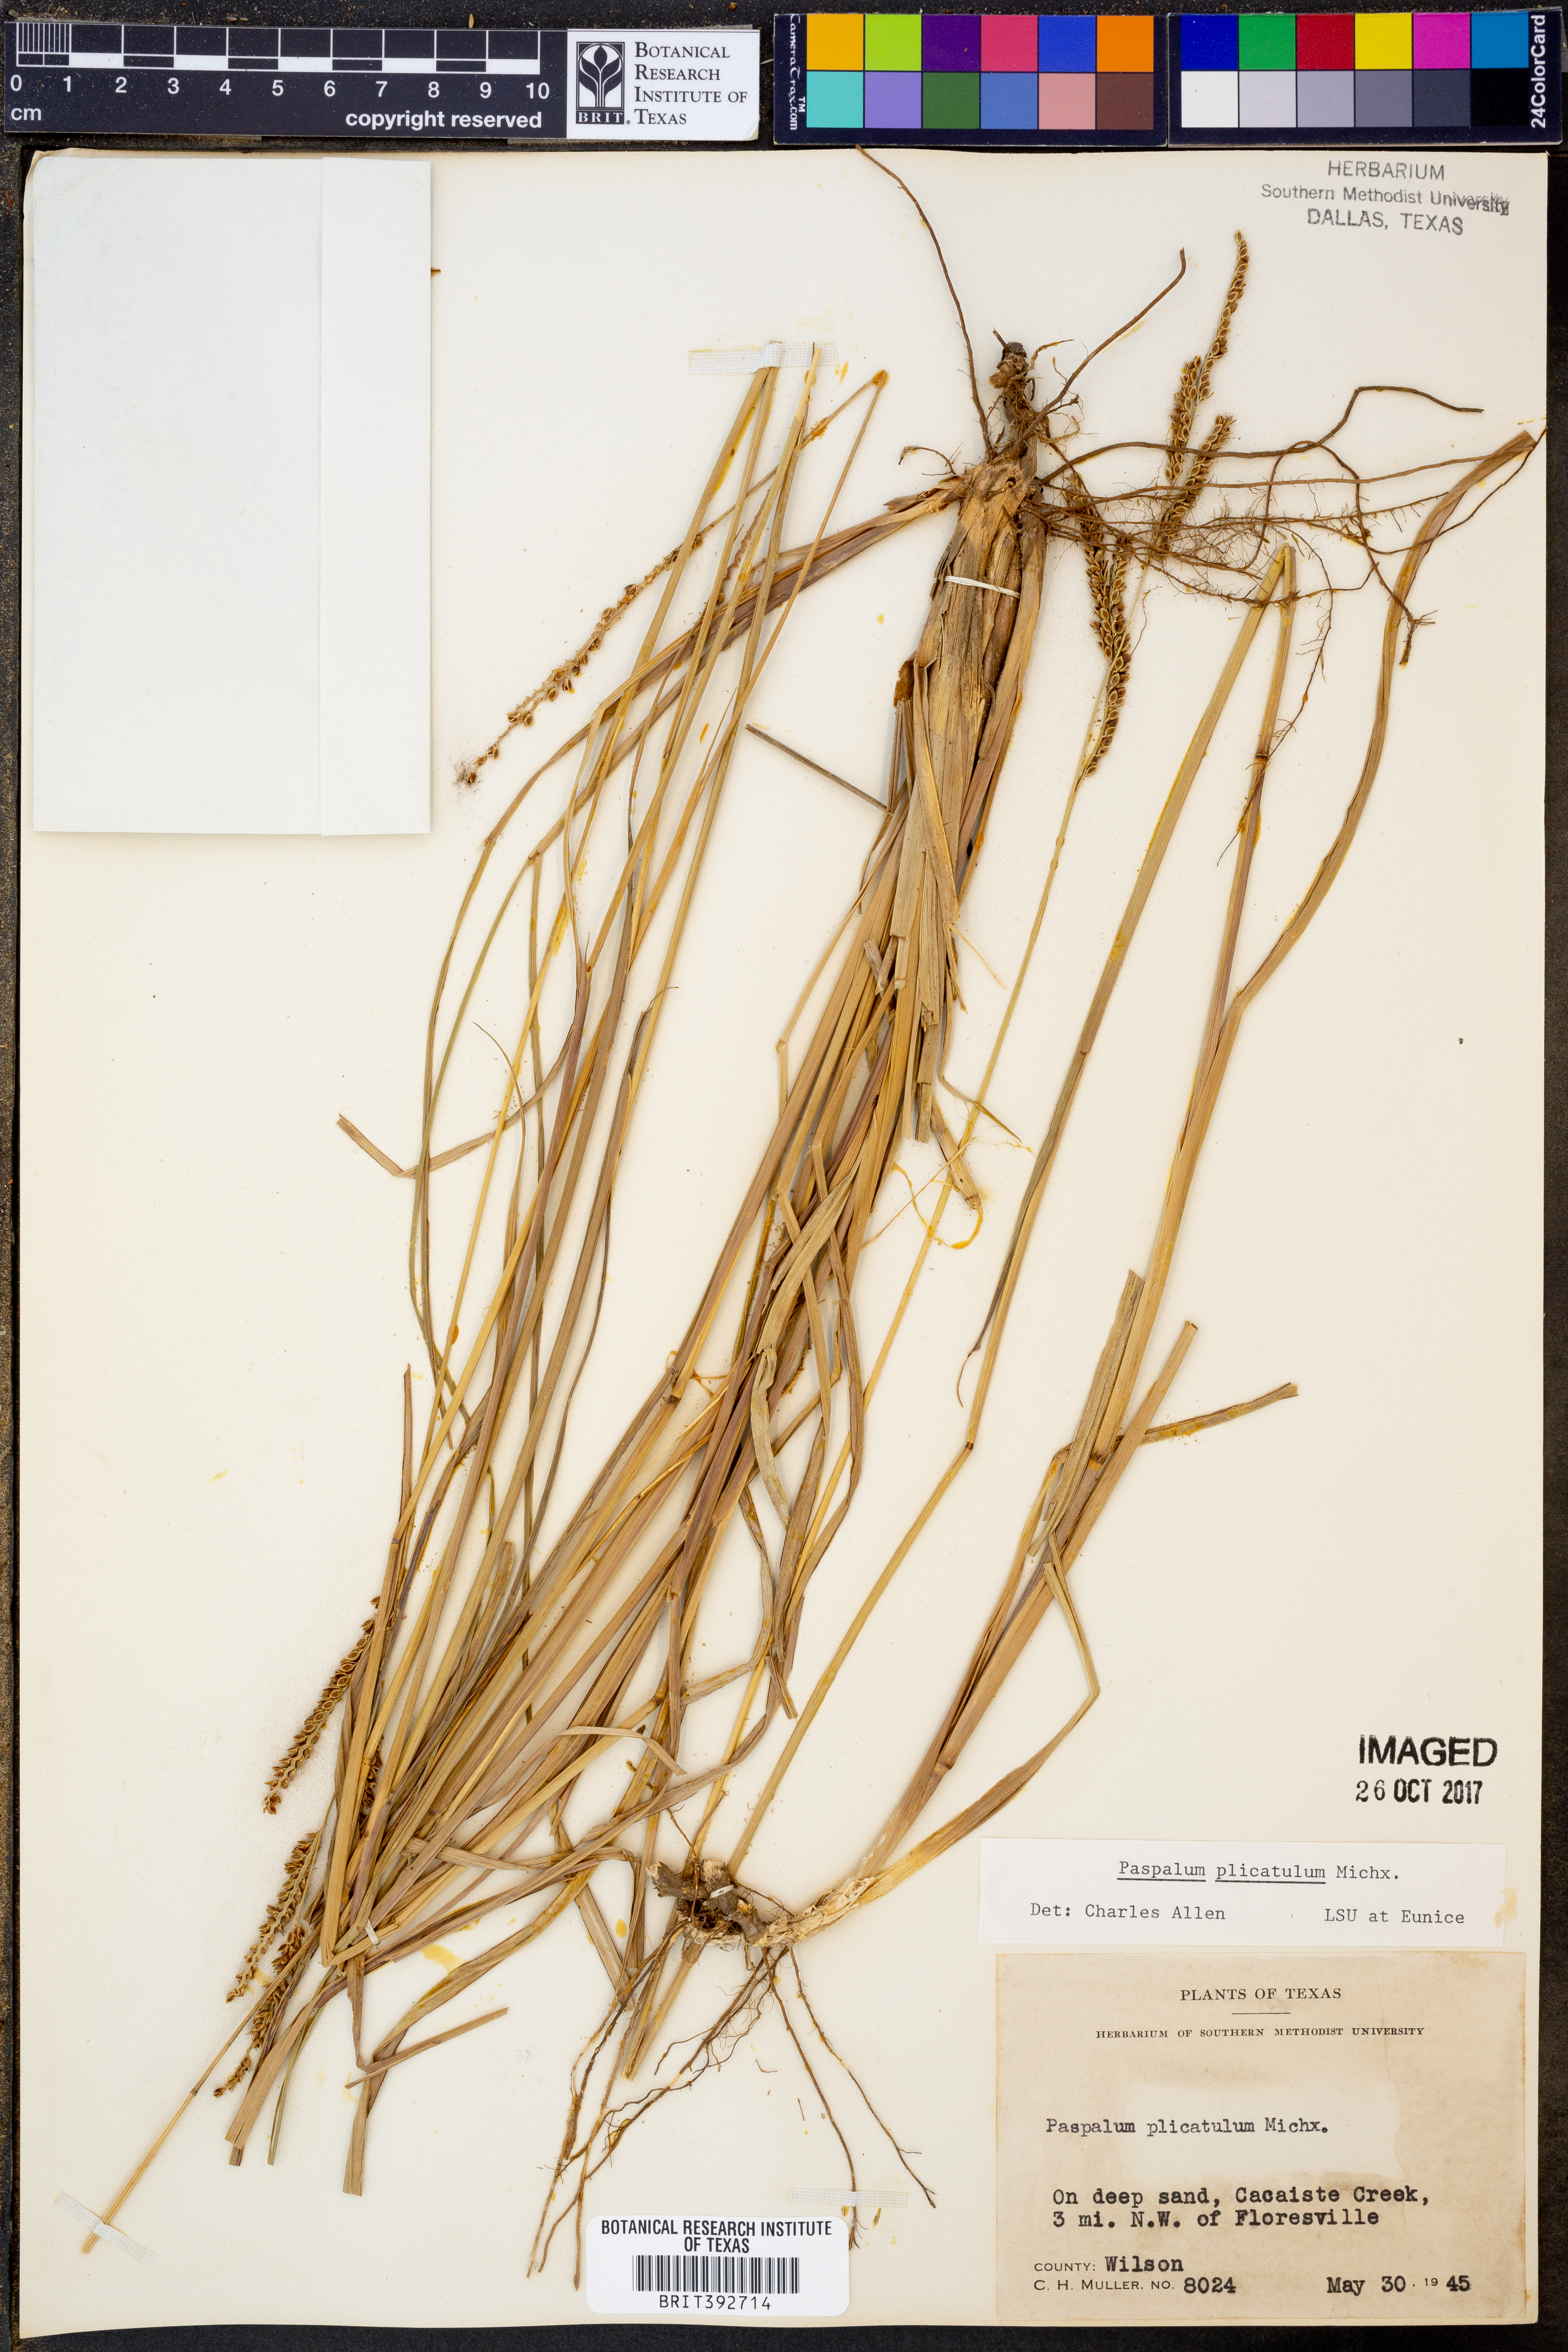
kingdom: Plantae
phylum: Tracheophyta
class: Liliopsida
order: Poales
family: Poaceae
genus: Paspalum
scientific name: Paspalum plicatulum
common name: Top paspalum
